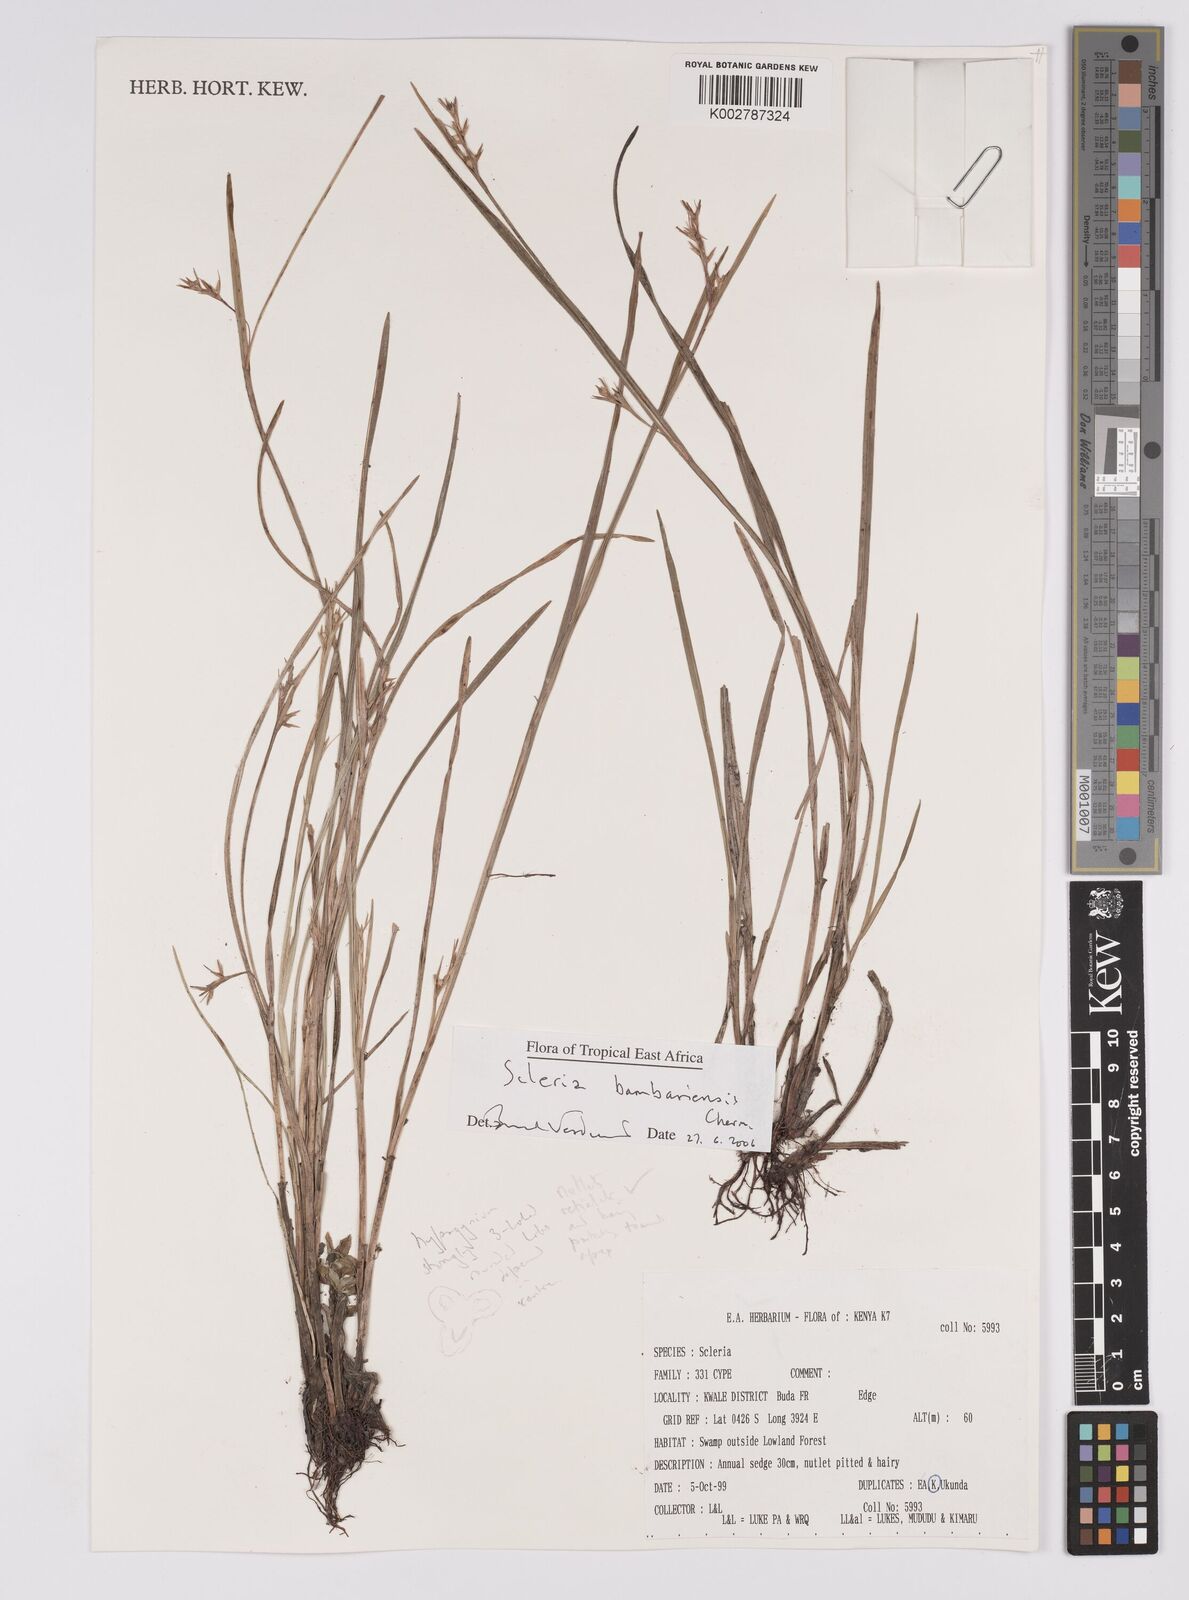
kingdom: Plantae
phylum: Tracheophyta
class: Liliopsida
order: Poales
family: Cyperaceae
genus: Scleria
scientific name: Scleria bambariensis
